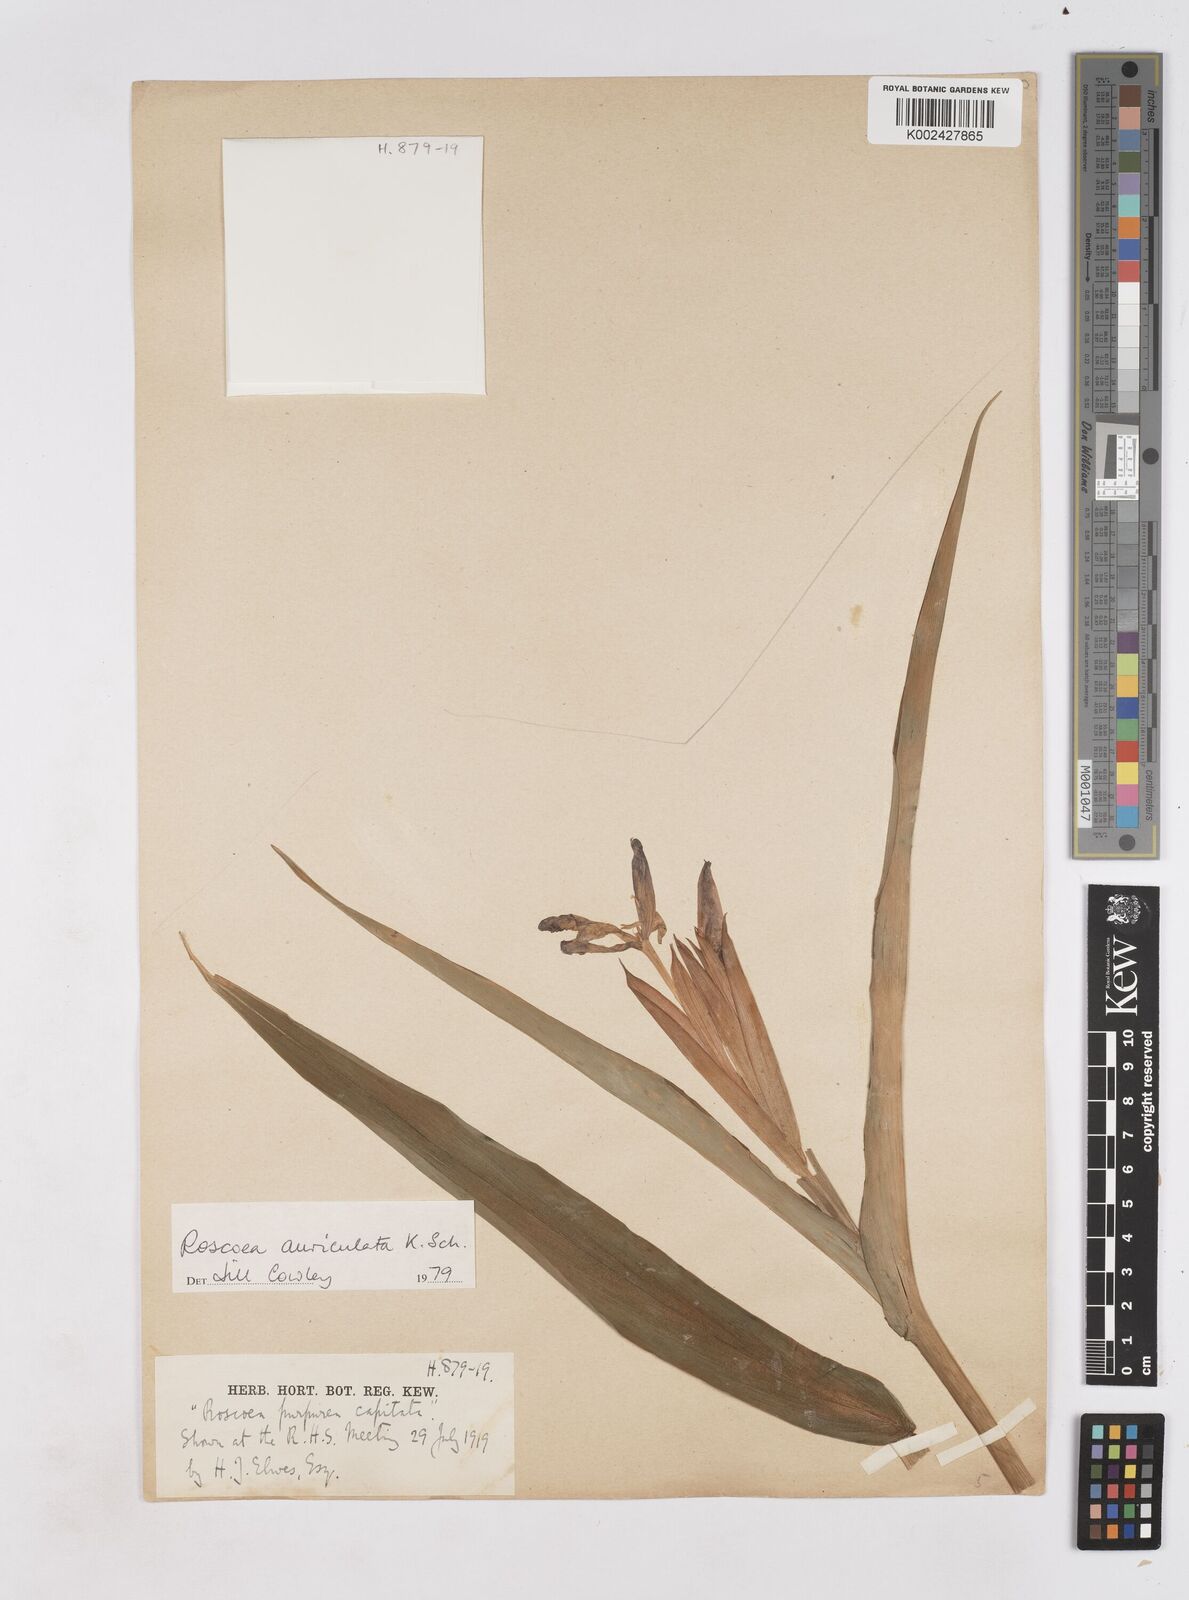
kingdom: Plantae
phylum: Tracheophyta
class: Liliopsida
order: Zingiberales
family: Zingiberaceae
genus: Roscoea
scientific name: Roscoea auriculata
